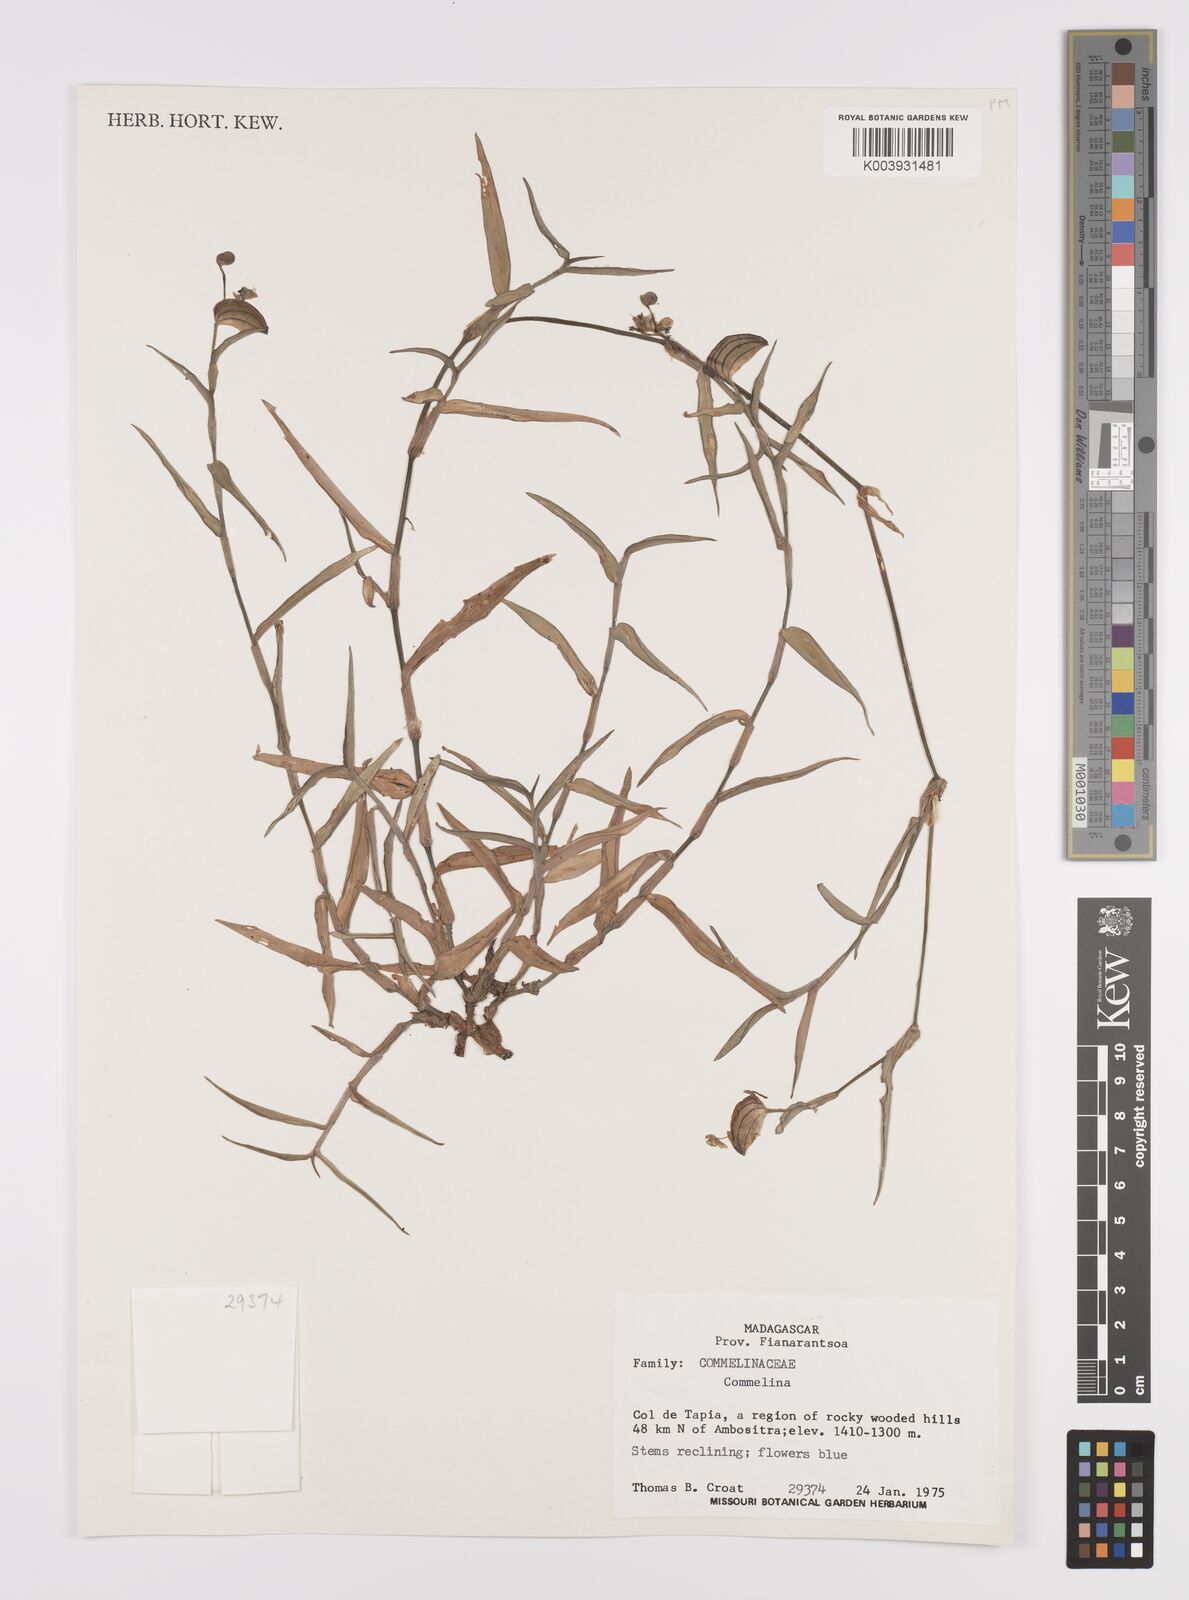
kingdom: Plantae
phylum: Tracheophyta
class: Liliopsida
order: Commelinales
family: Commelinaceae
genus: Commelina
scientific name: Commelina
